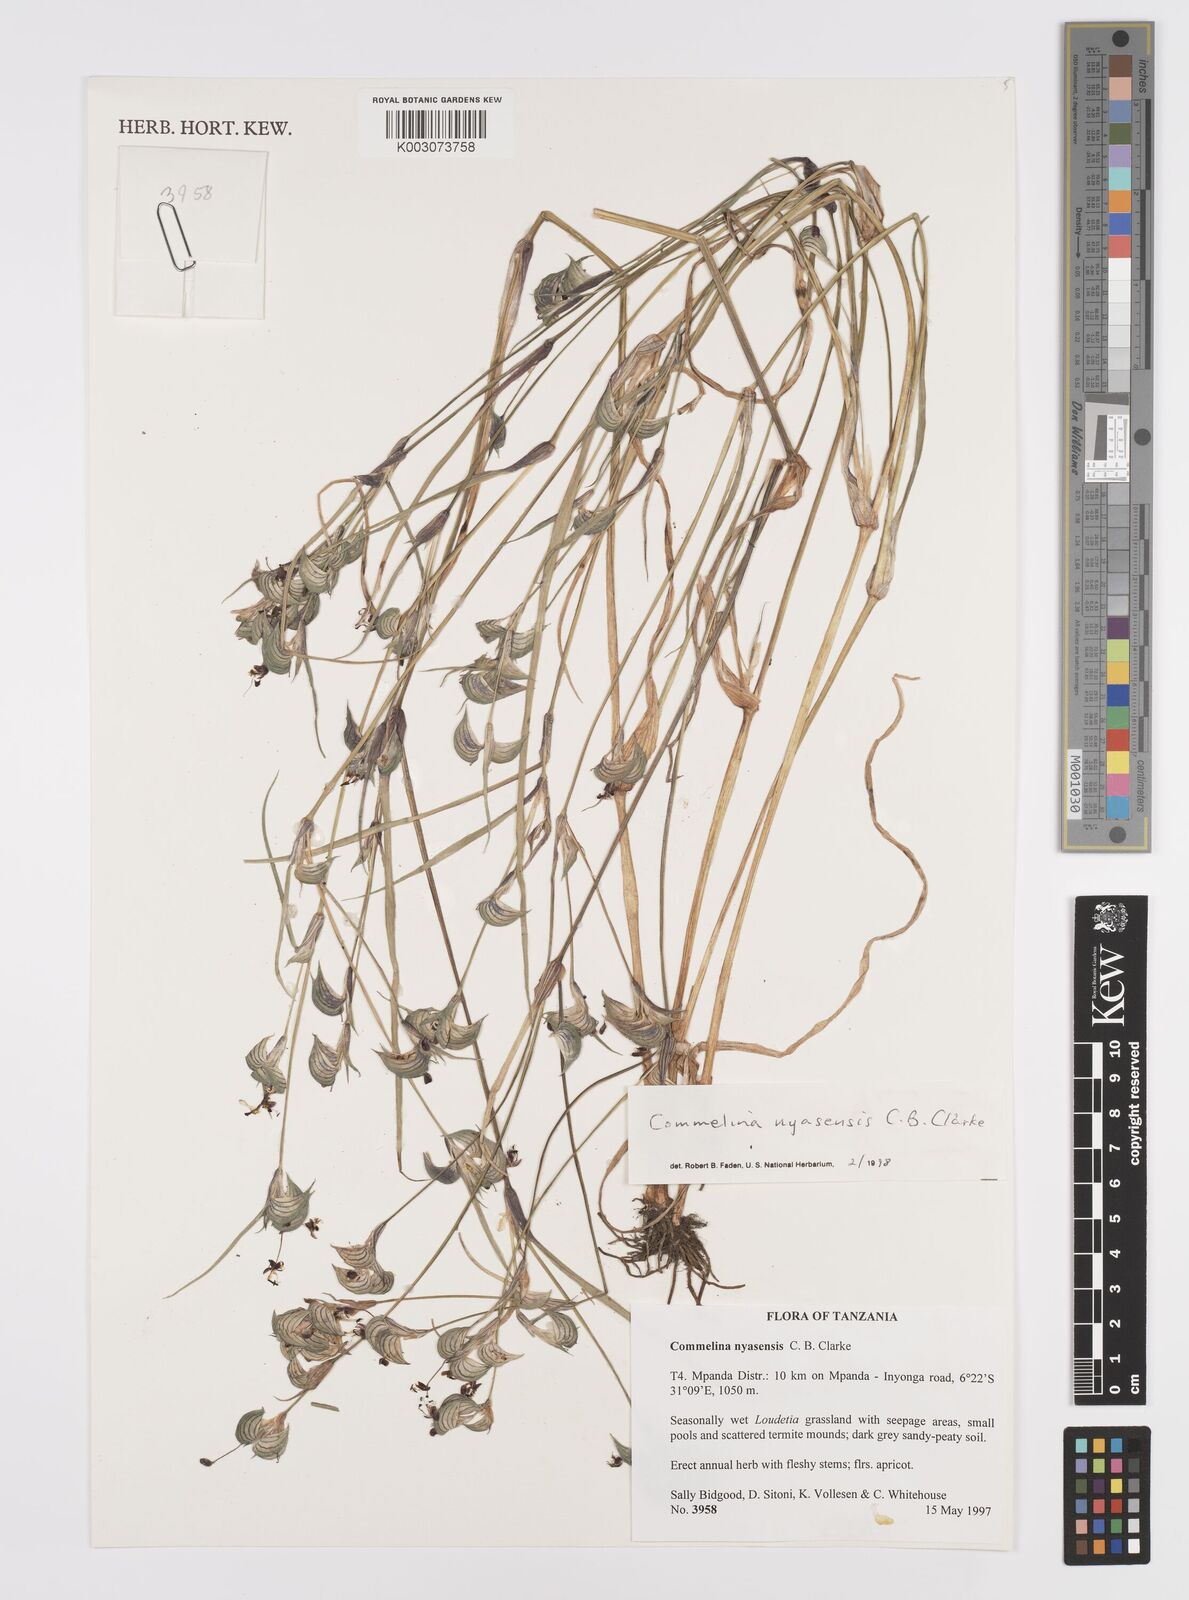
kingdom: Plantae
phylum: Tracheophyta
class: Liliopsida
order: Commelinales
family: Commelinaceae
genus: Commelina
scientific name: Commelina nyasensis
